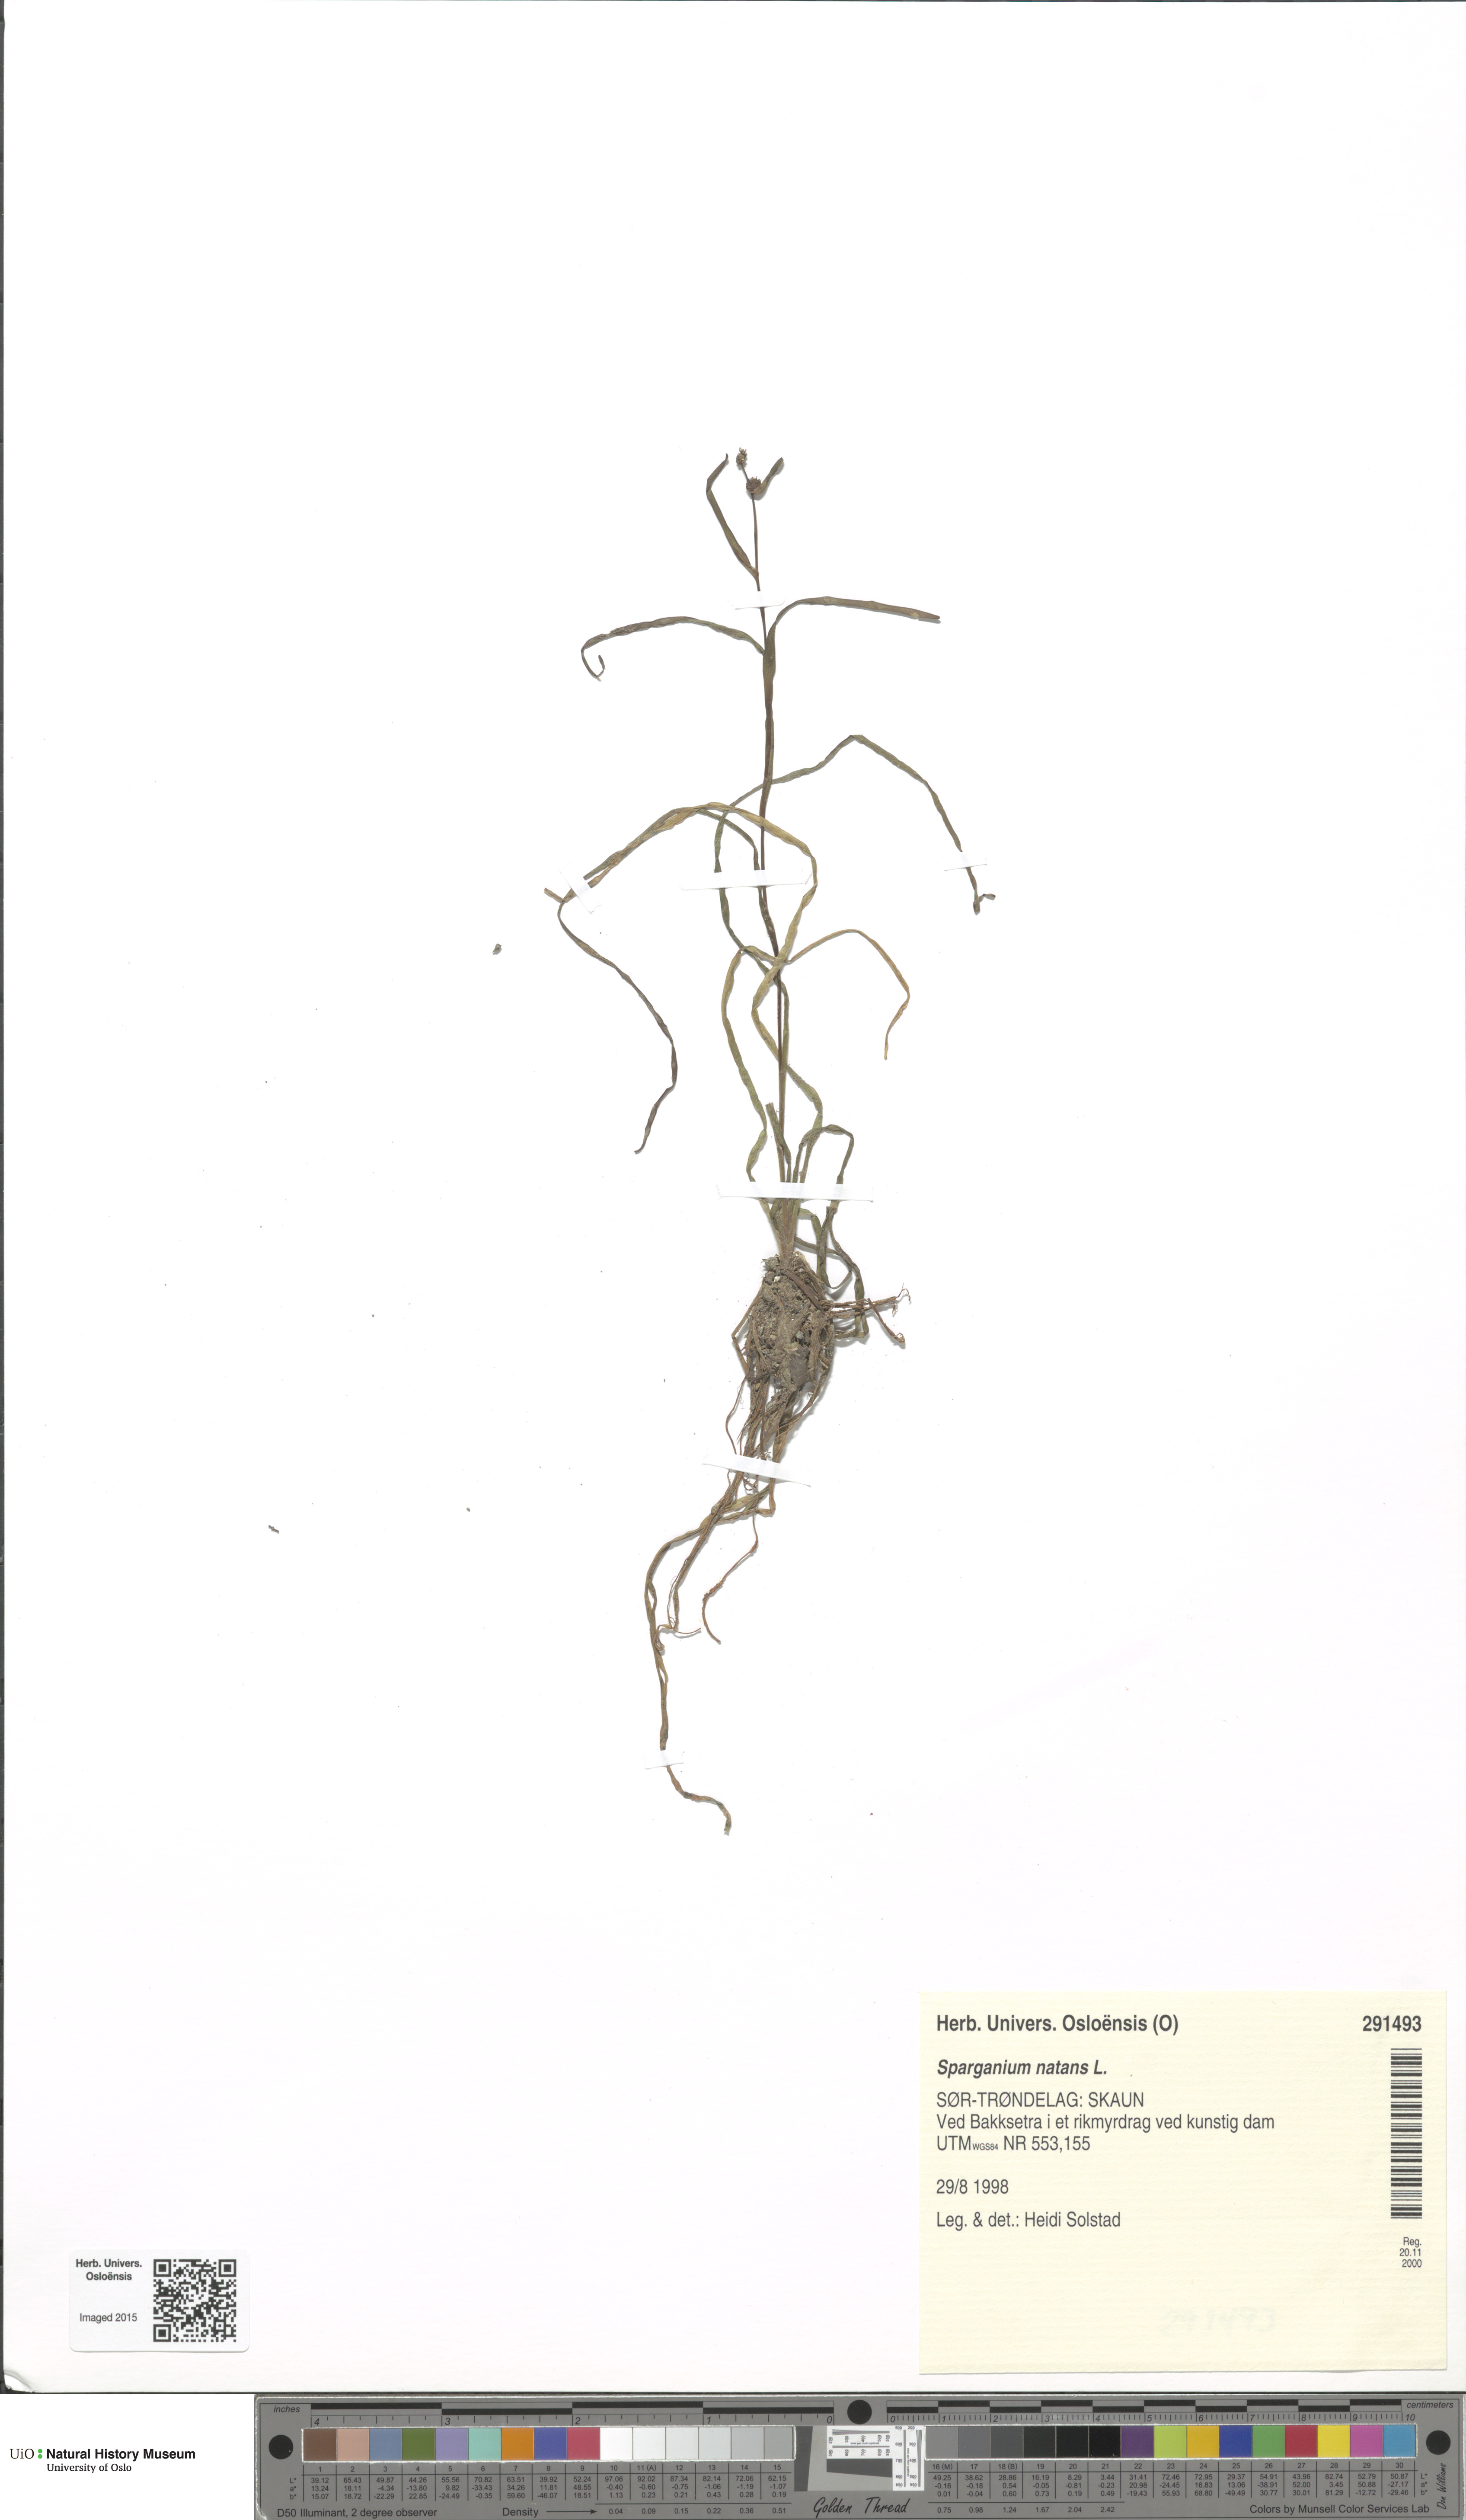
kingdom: Plantae
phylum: Tracheophyta
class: Liliopsida
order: Poales
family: Typhaceae
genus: Sparganium
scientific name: Sparganium natans
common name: Least bur-reed
